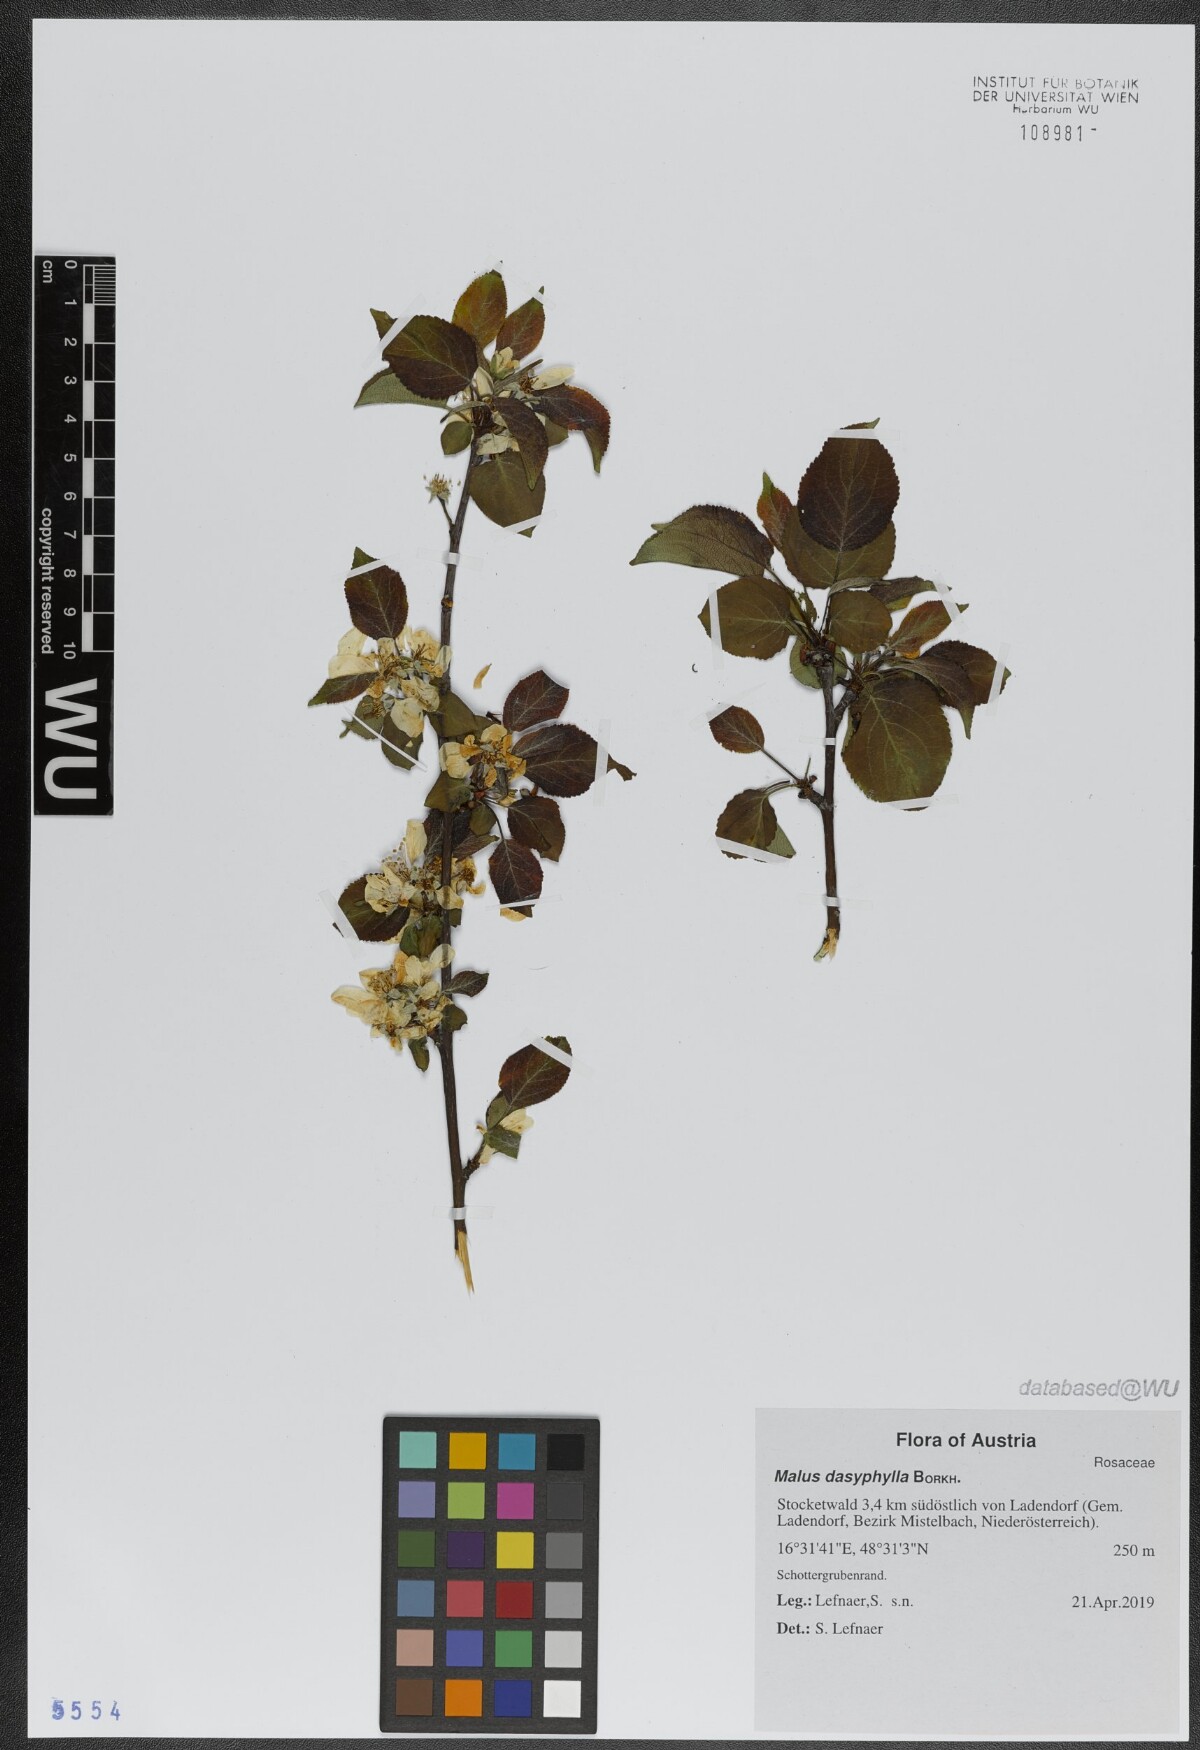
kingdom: Plantae
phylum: Tracheophyta
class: Magnoliopsida
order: Rosales
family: Rosaceae
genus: Malus
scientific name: Malus dasyphylla
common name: Paradise apple
